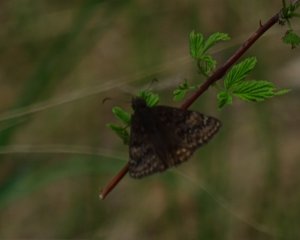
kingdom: Animalia
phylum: Arthropoda
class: Insecta
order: Lepidoptera
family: Hesperiidae
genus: Gesta
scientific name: Gesta
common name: Wild Indigo Duskywing
